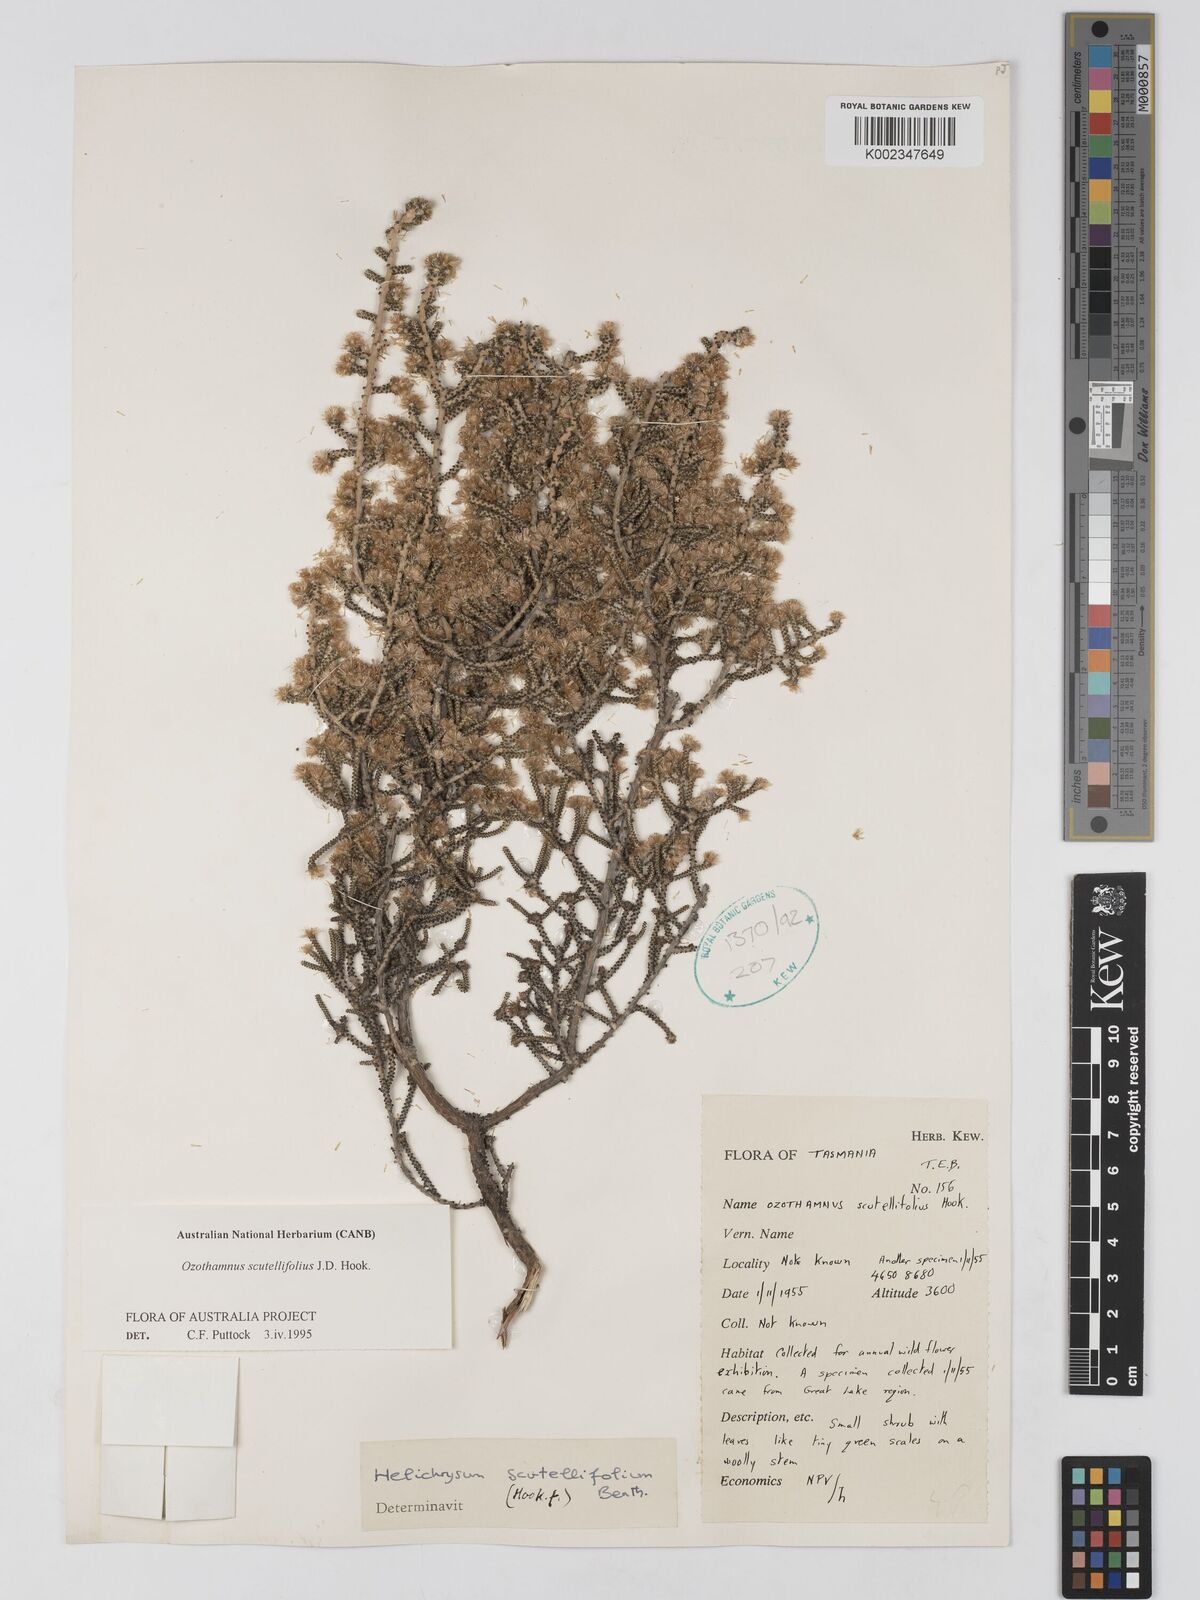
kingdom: Plantae
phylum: Tracheophyta
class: Magnoliopsida
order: Asterales
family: Asteraceae
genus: Ozothamnus
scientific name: Ozothamnus scutellifolius
